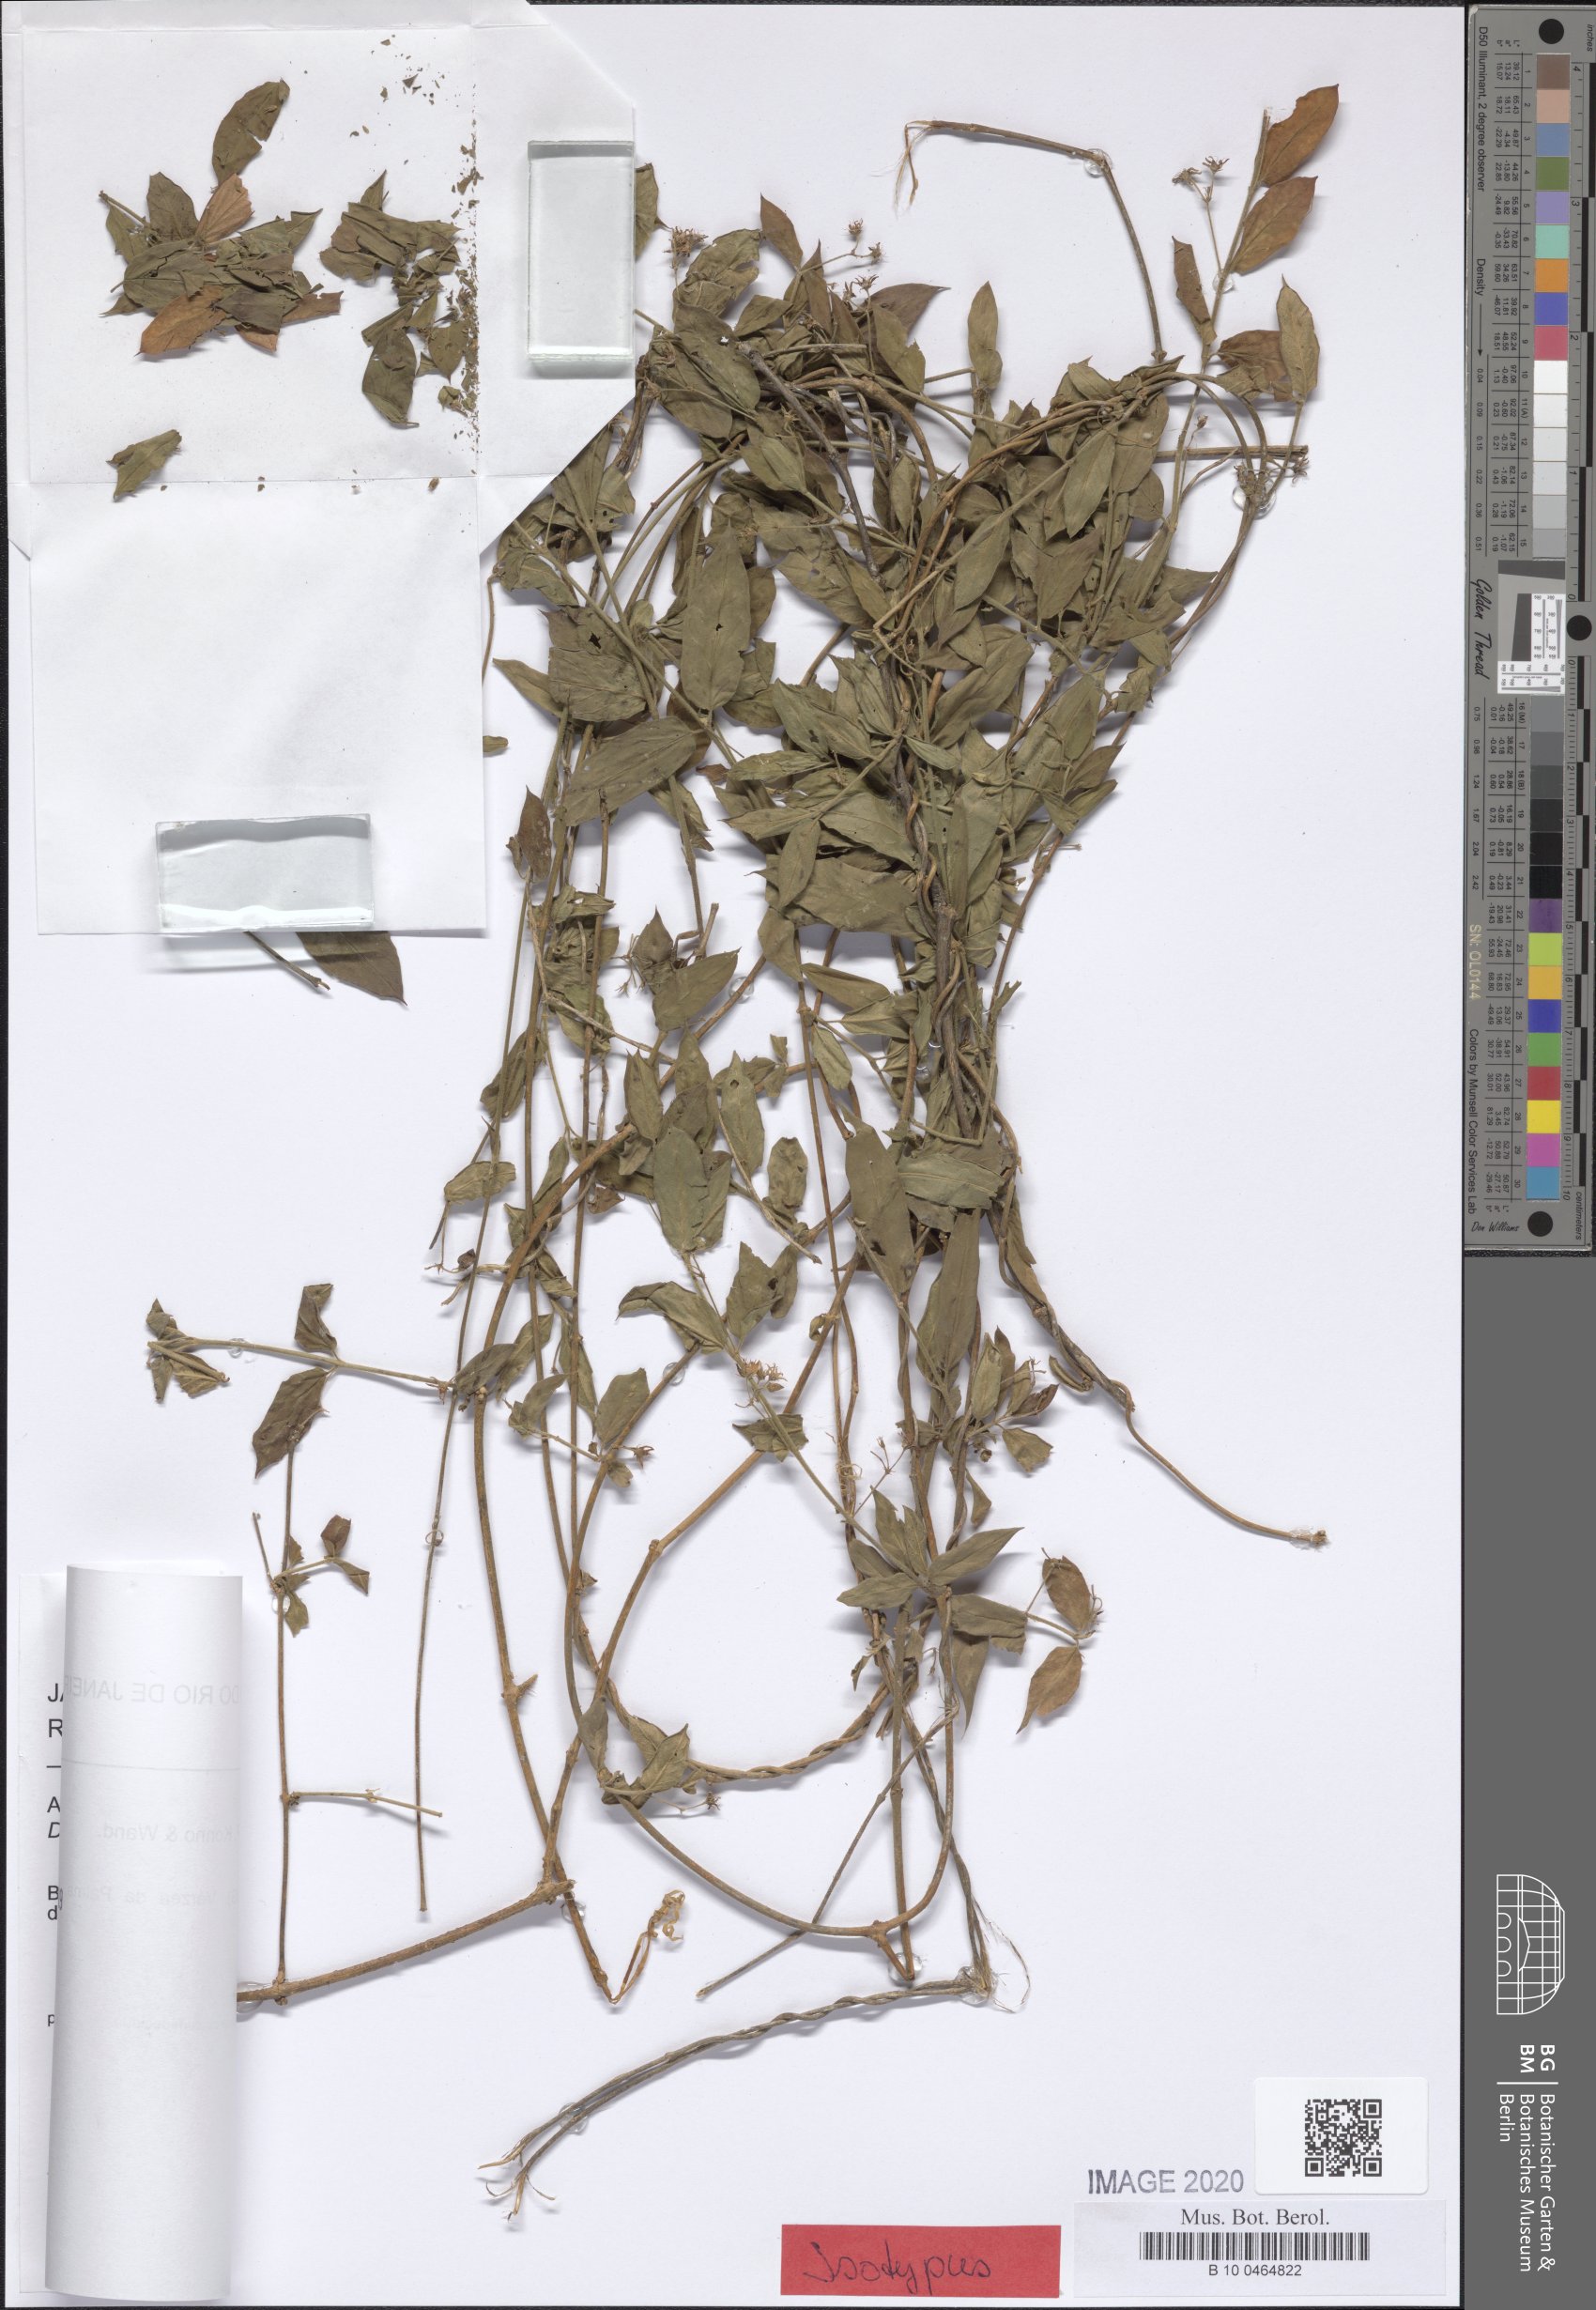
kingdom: Plantae
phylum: Tracheophyta
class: Magnoliopsida
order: Gentianales
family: Apocynaceae
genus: Ditassa
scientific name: Ditassa dardanoi
